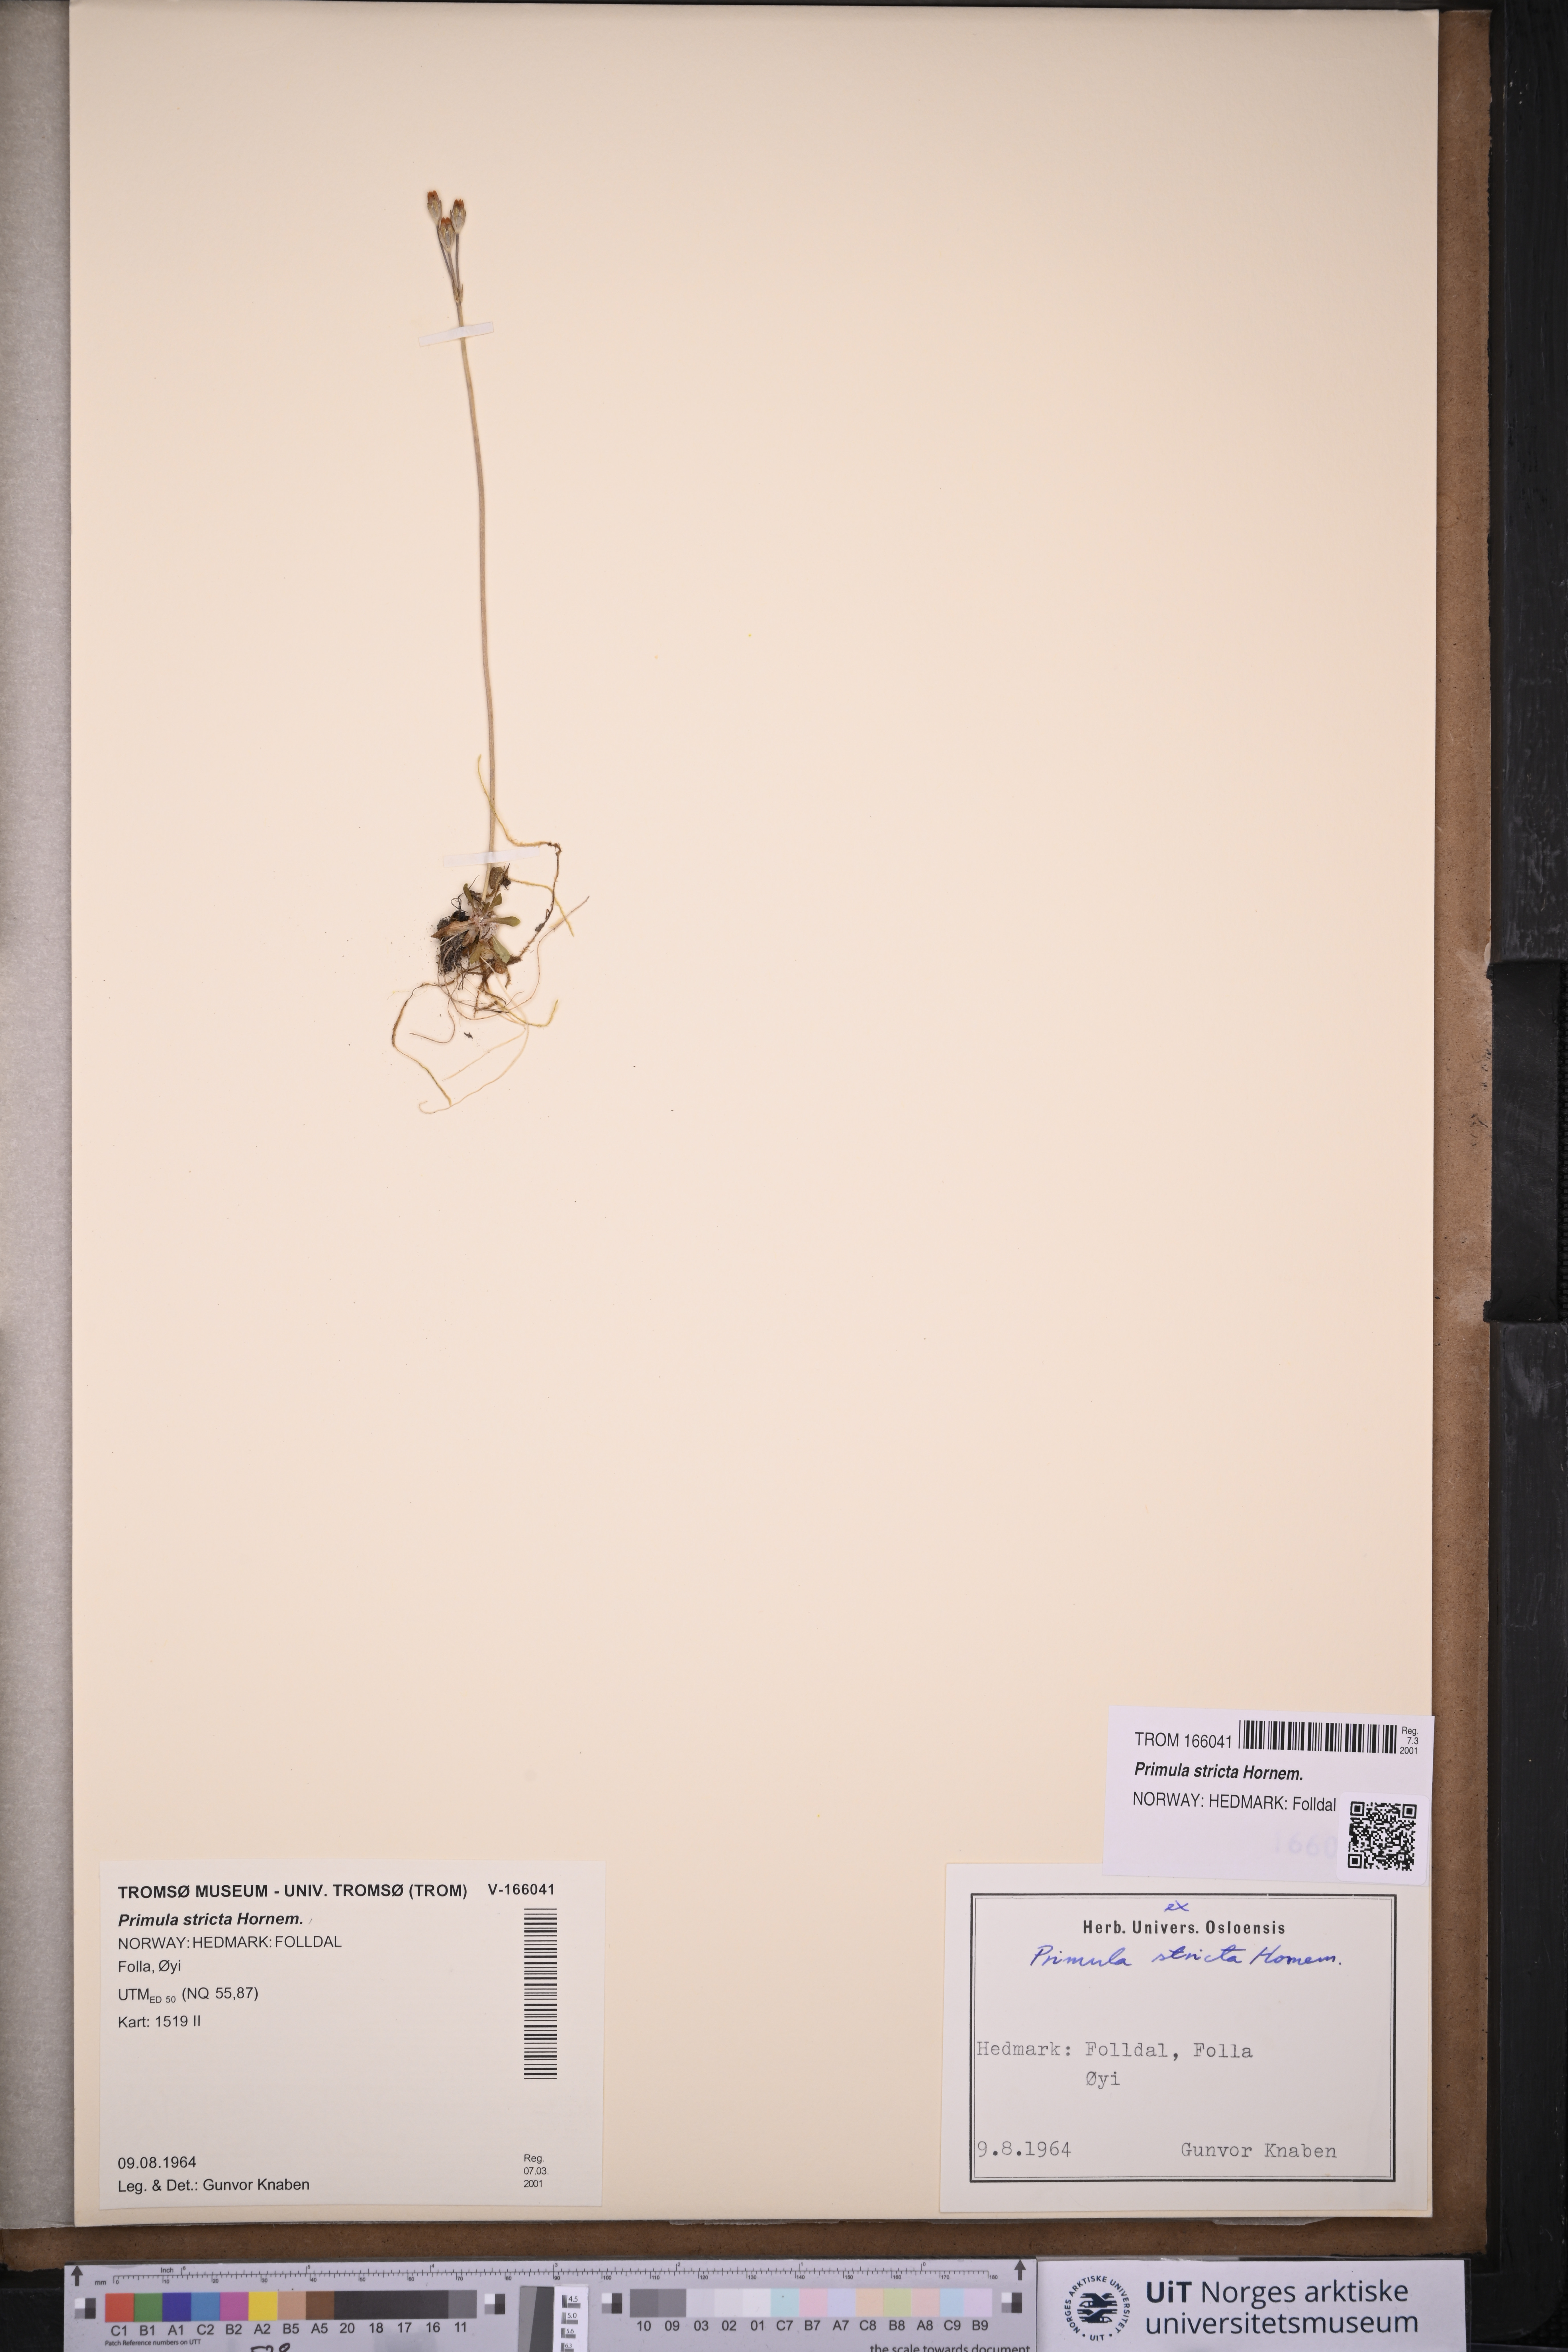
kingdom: Plantae
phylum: Tracheophyta
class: Magnoliopsida
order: Ericales
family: Primulaceae
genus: Primula
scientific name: Primula stricta
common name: Coastal primrose
